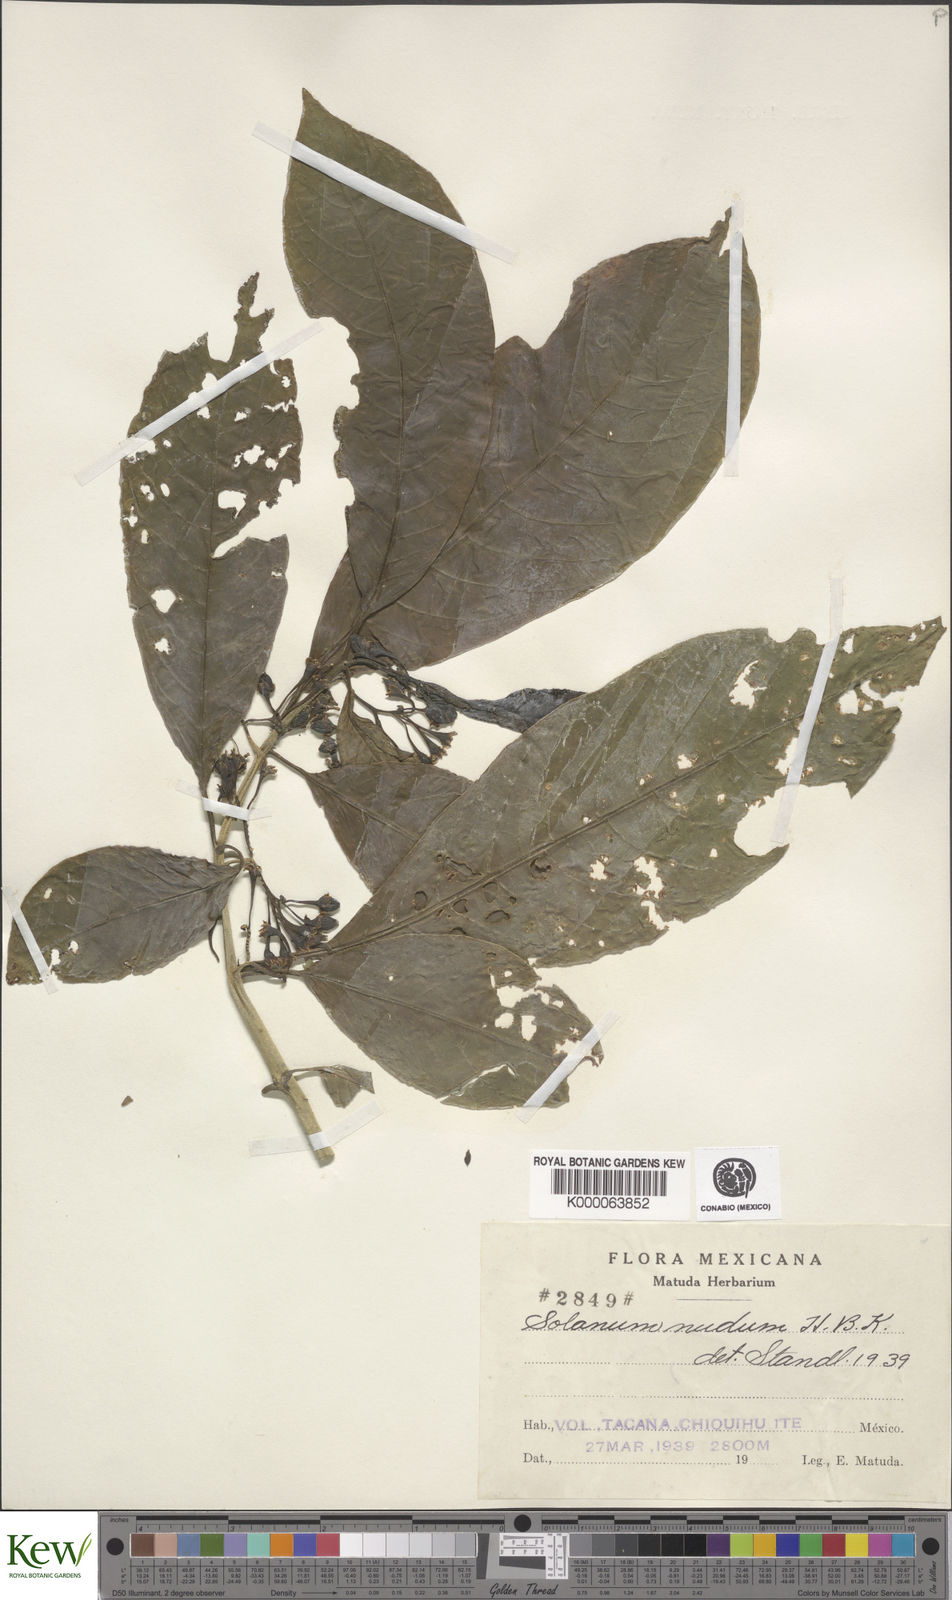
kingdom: Plantae
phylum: Tracheophyta
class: Magnoliopsida
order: Solanales
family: Solanaceae
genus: Solanum
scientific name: Solanum nudum
